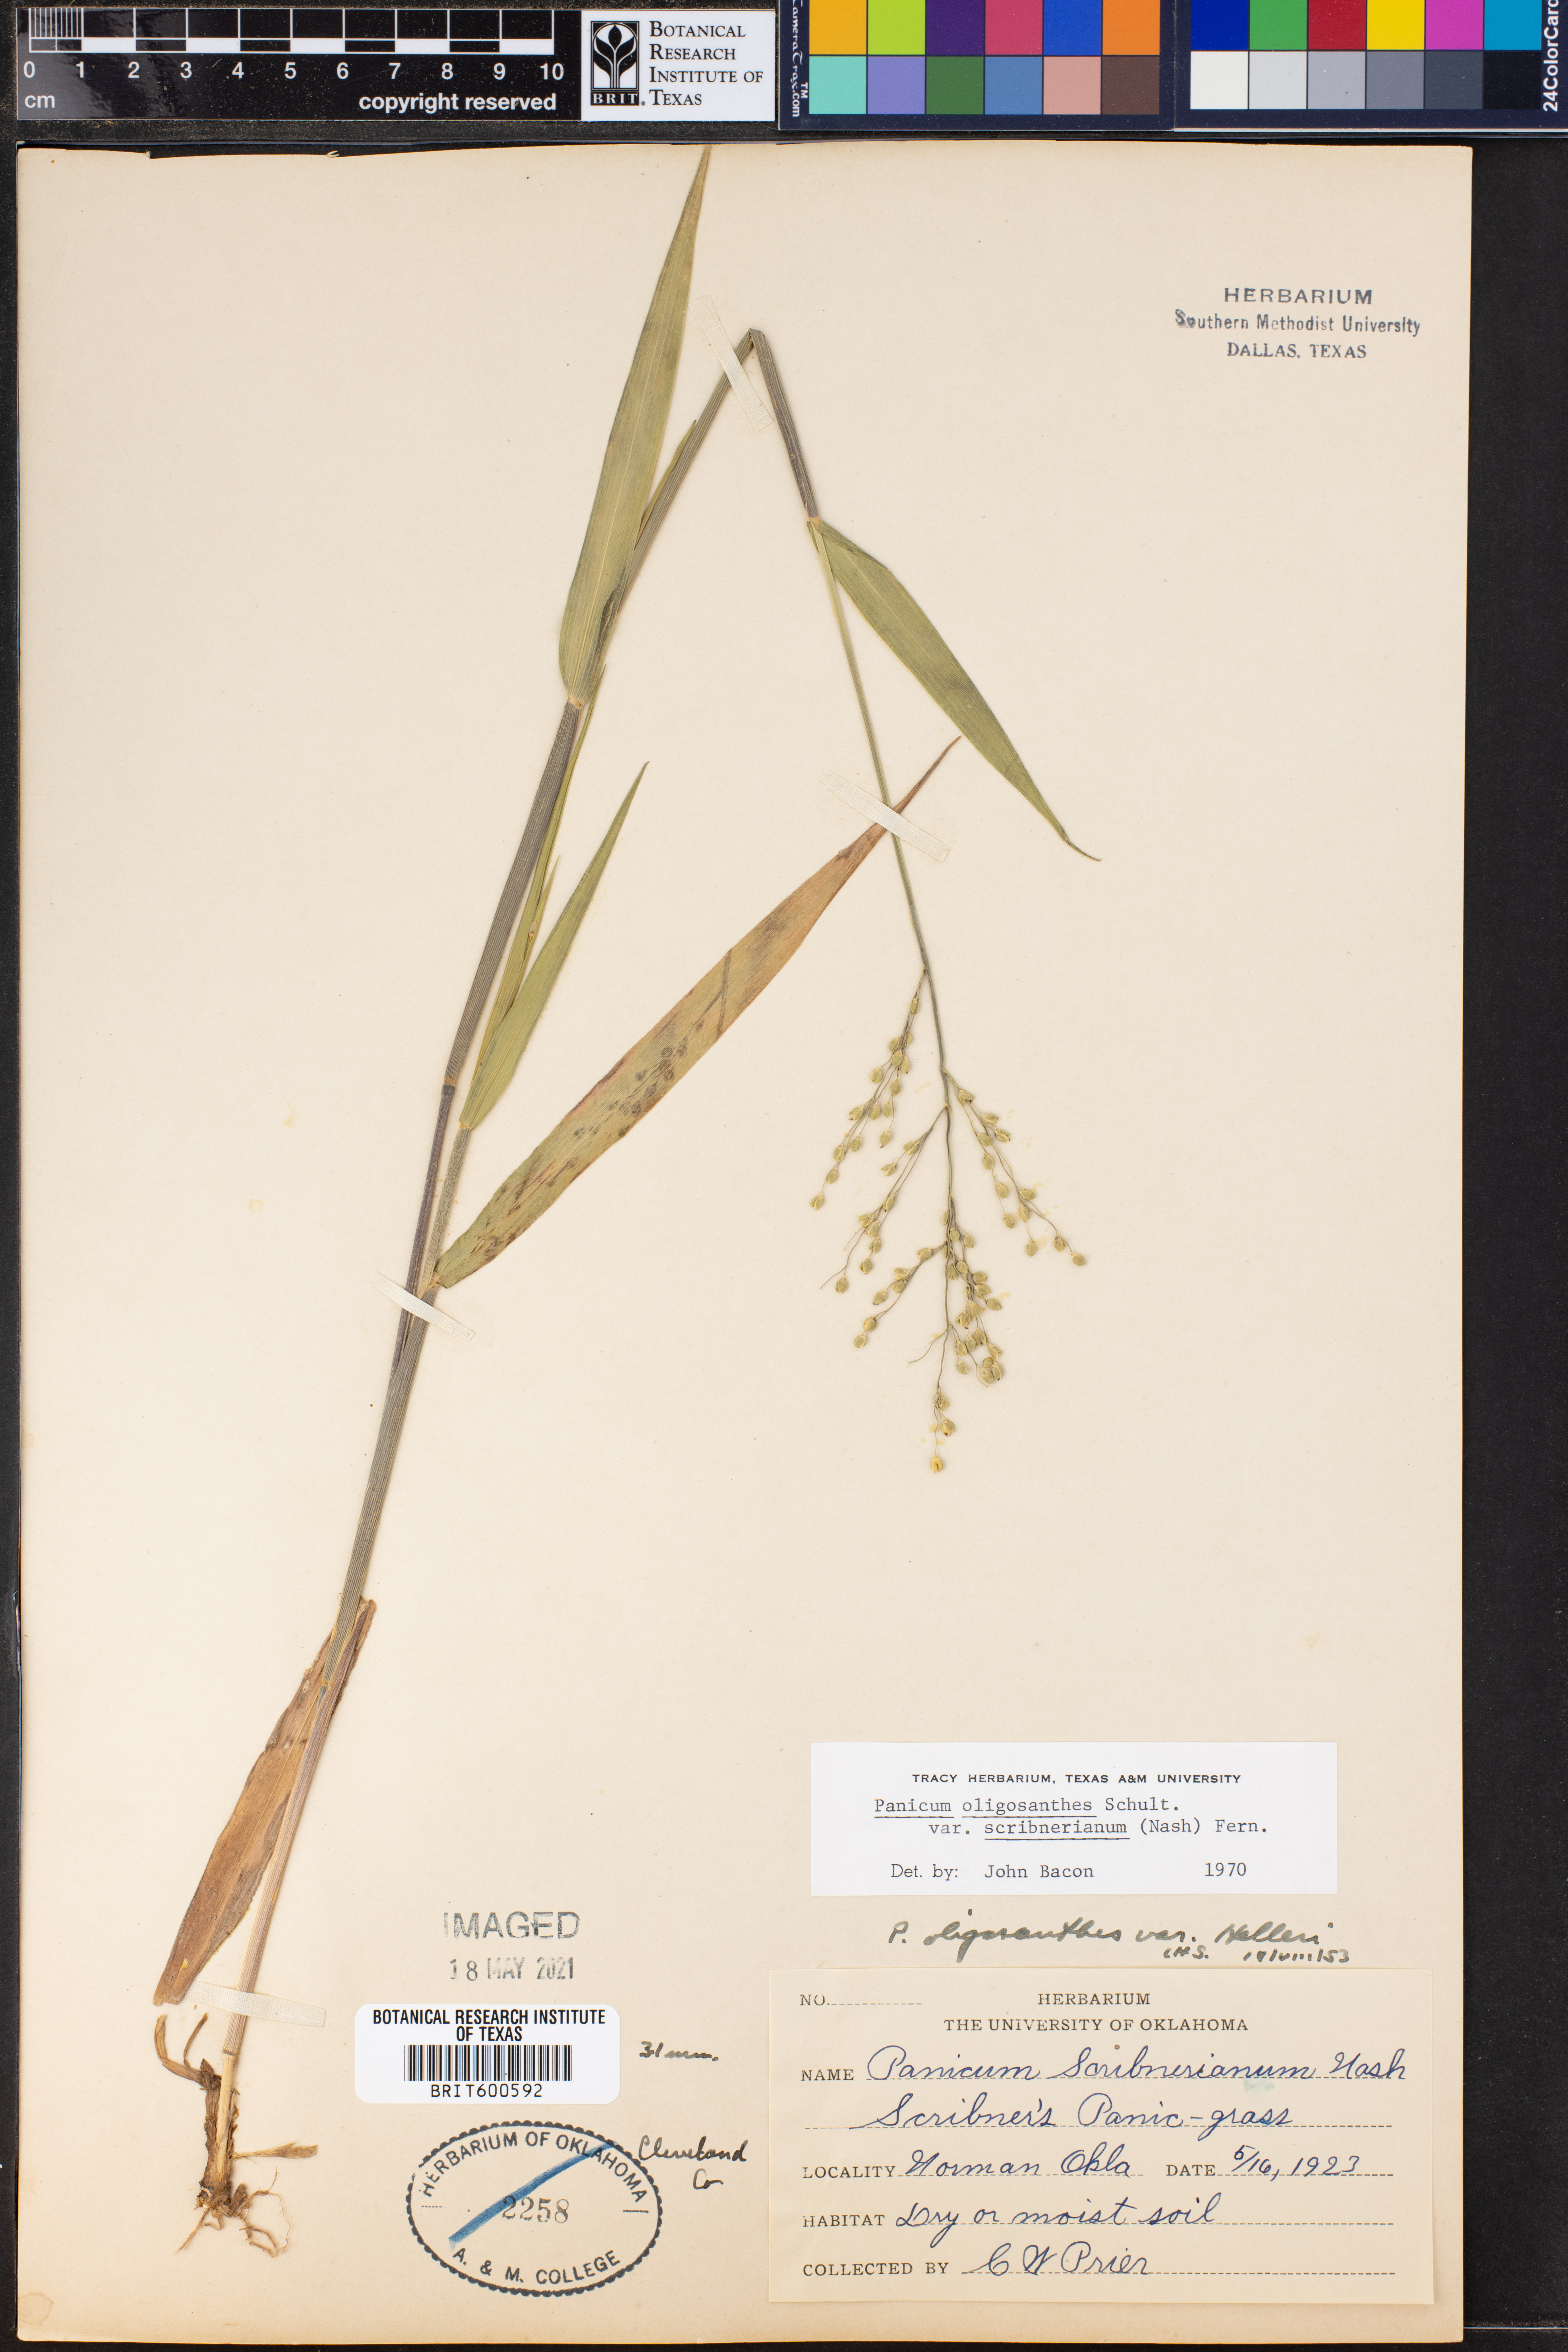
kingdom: Plantae
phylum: Tracheophyta
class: Liliopsida
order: Poales
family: Poaceae
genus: Dichanthelium
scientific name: Dichanthelium scribnerianum
